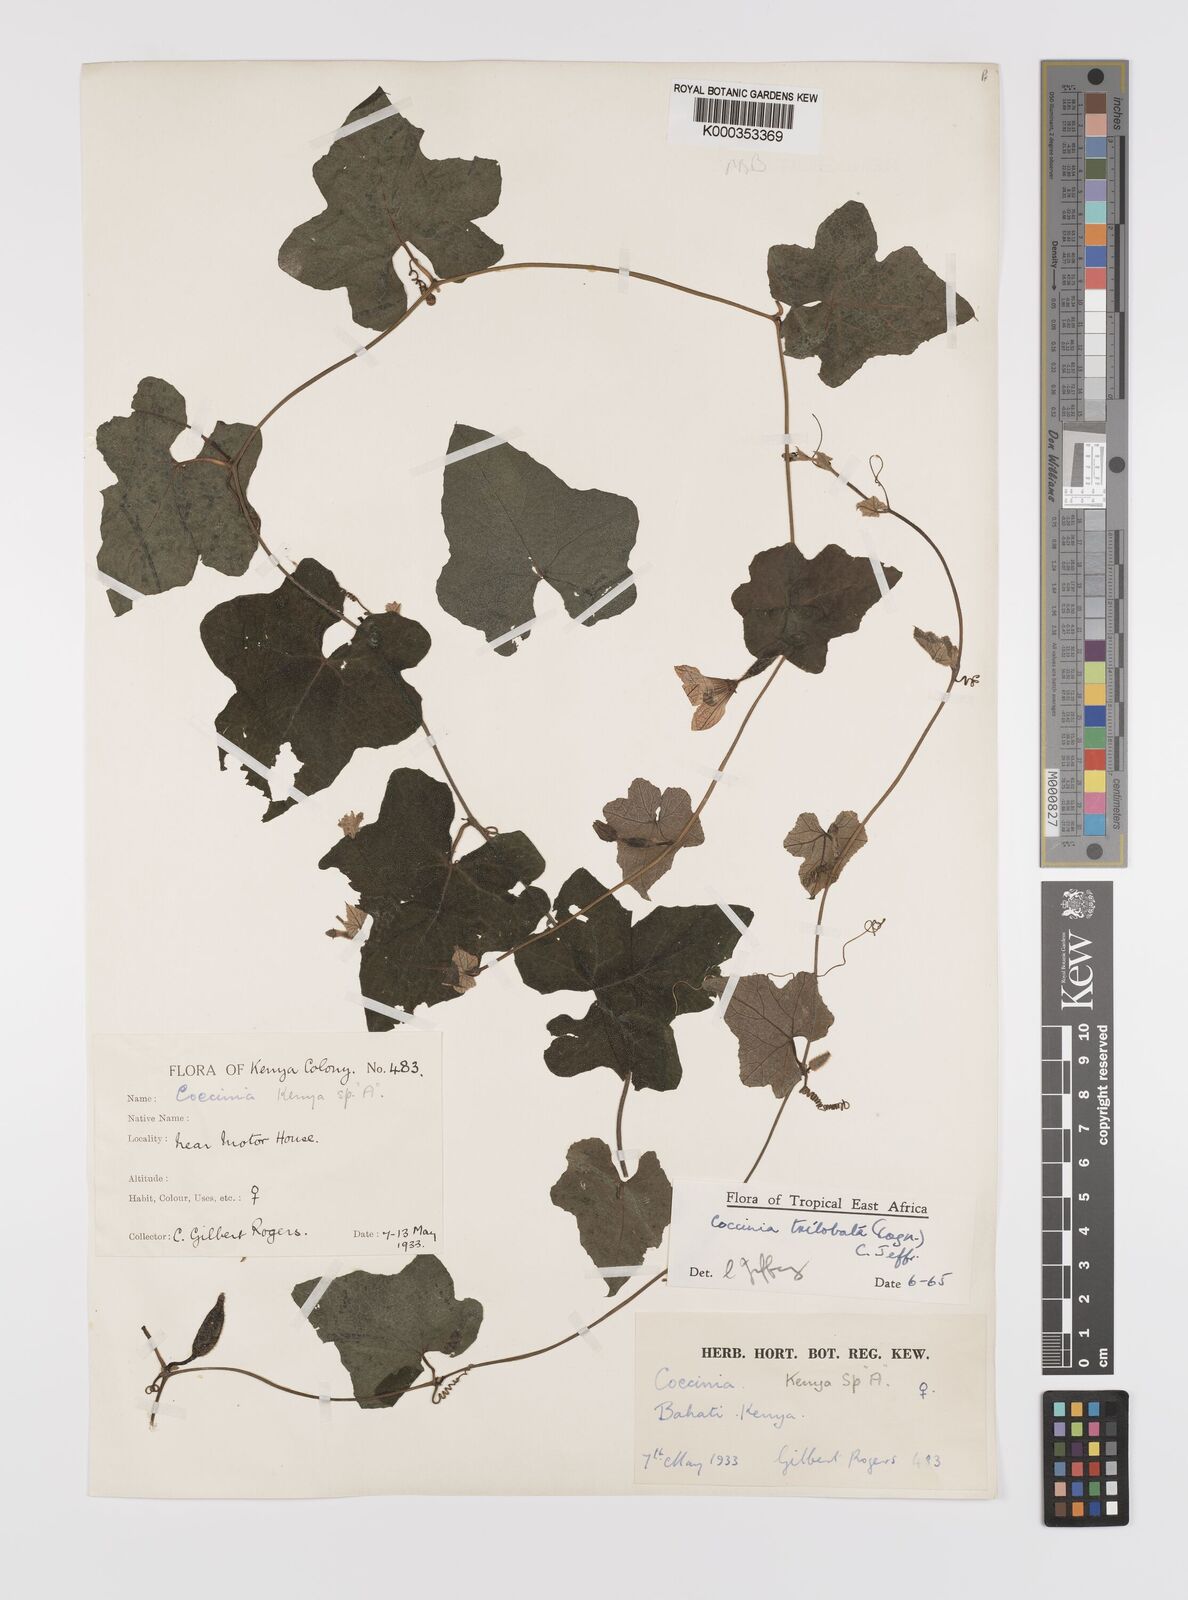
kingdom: Plantae
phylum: Tracheophyta
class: Magnoliopsida
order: Cucurbitales
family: Cucurbitaceae
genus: Coccinia
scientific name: Coccinia trilobata
